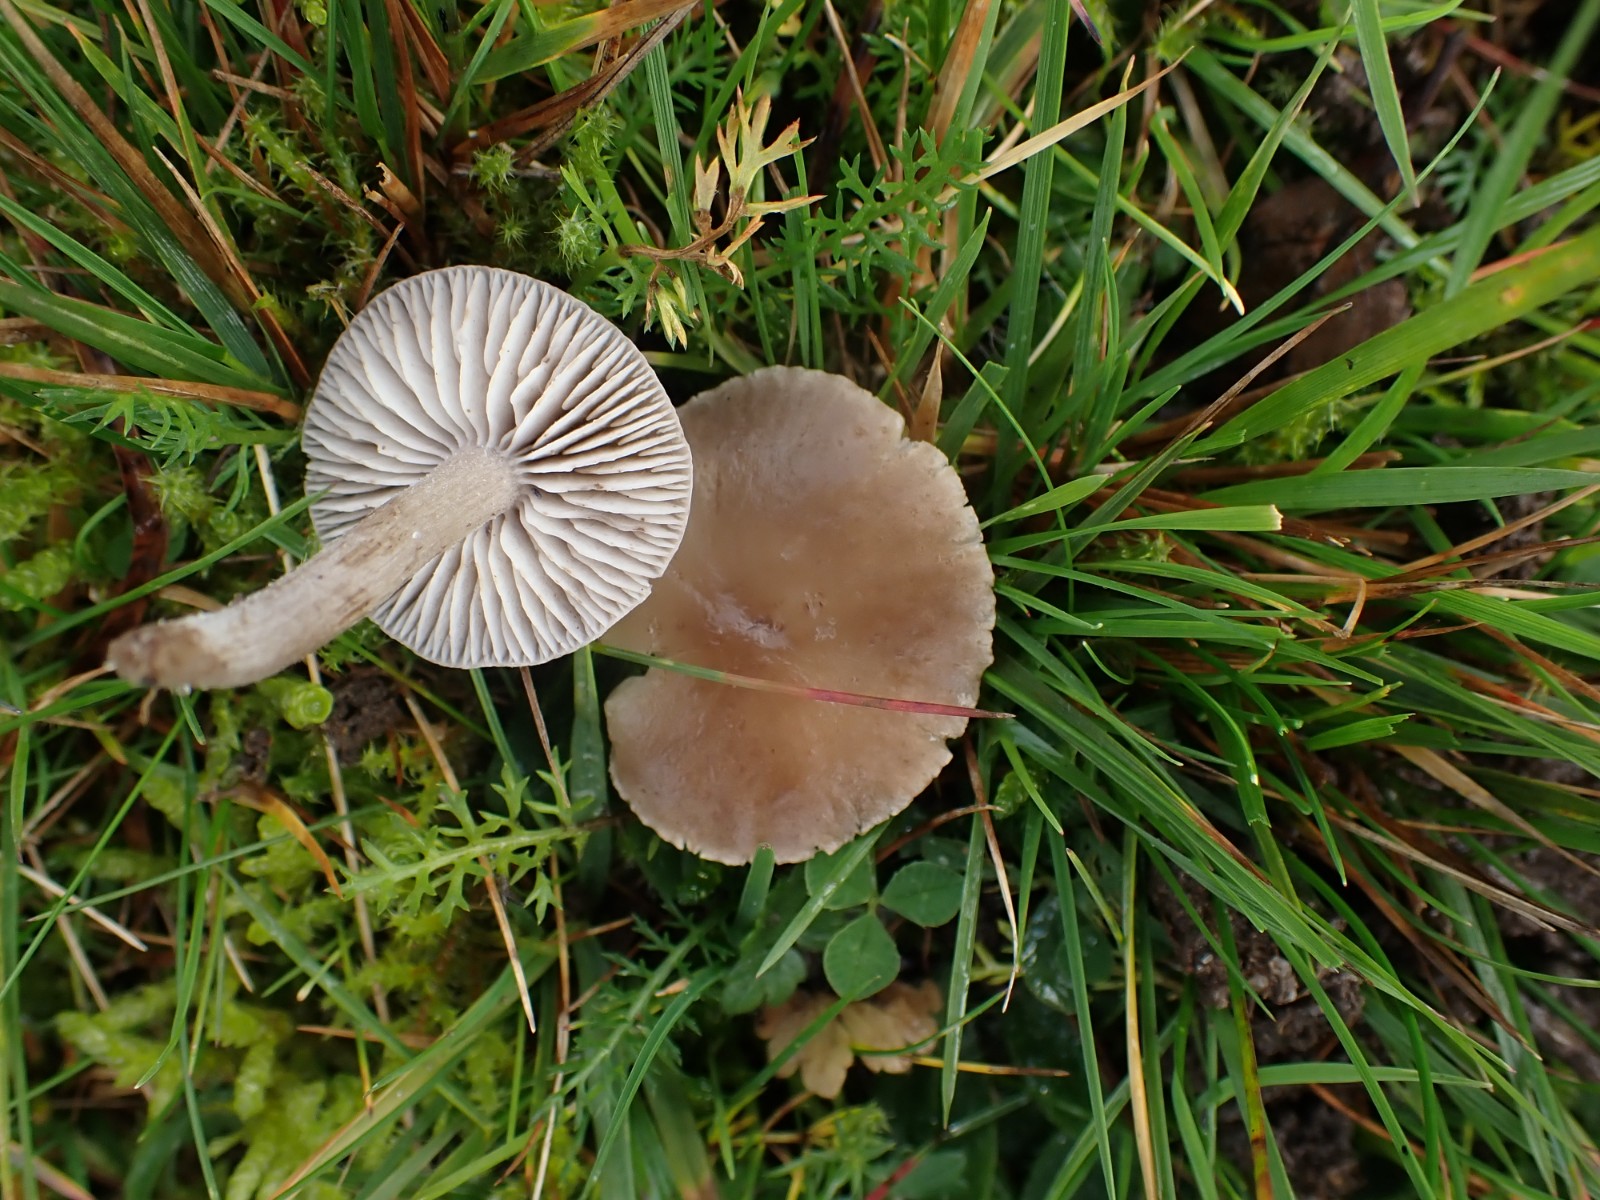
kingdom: Fungi
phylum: Basidiomycota
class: Agaricomycetes
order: Agaricales
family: Tricholomataceae
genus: Dermoloma
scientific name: Dermoloma cuneifolium
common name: eng-nonnehat
